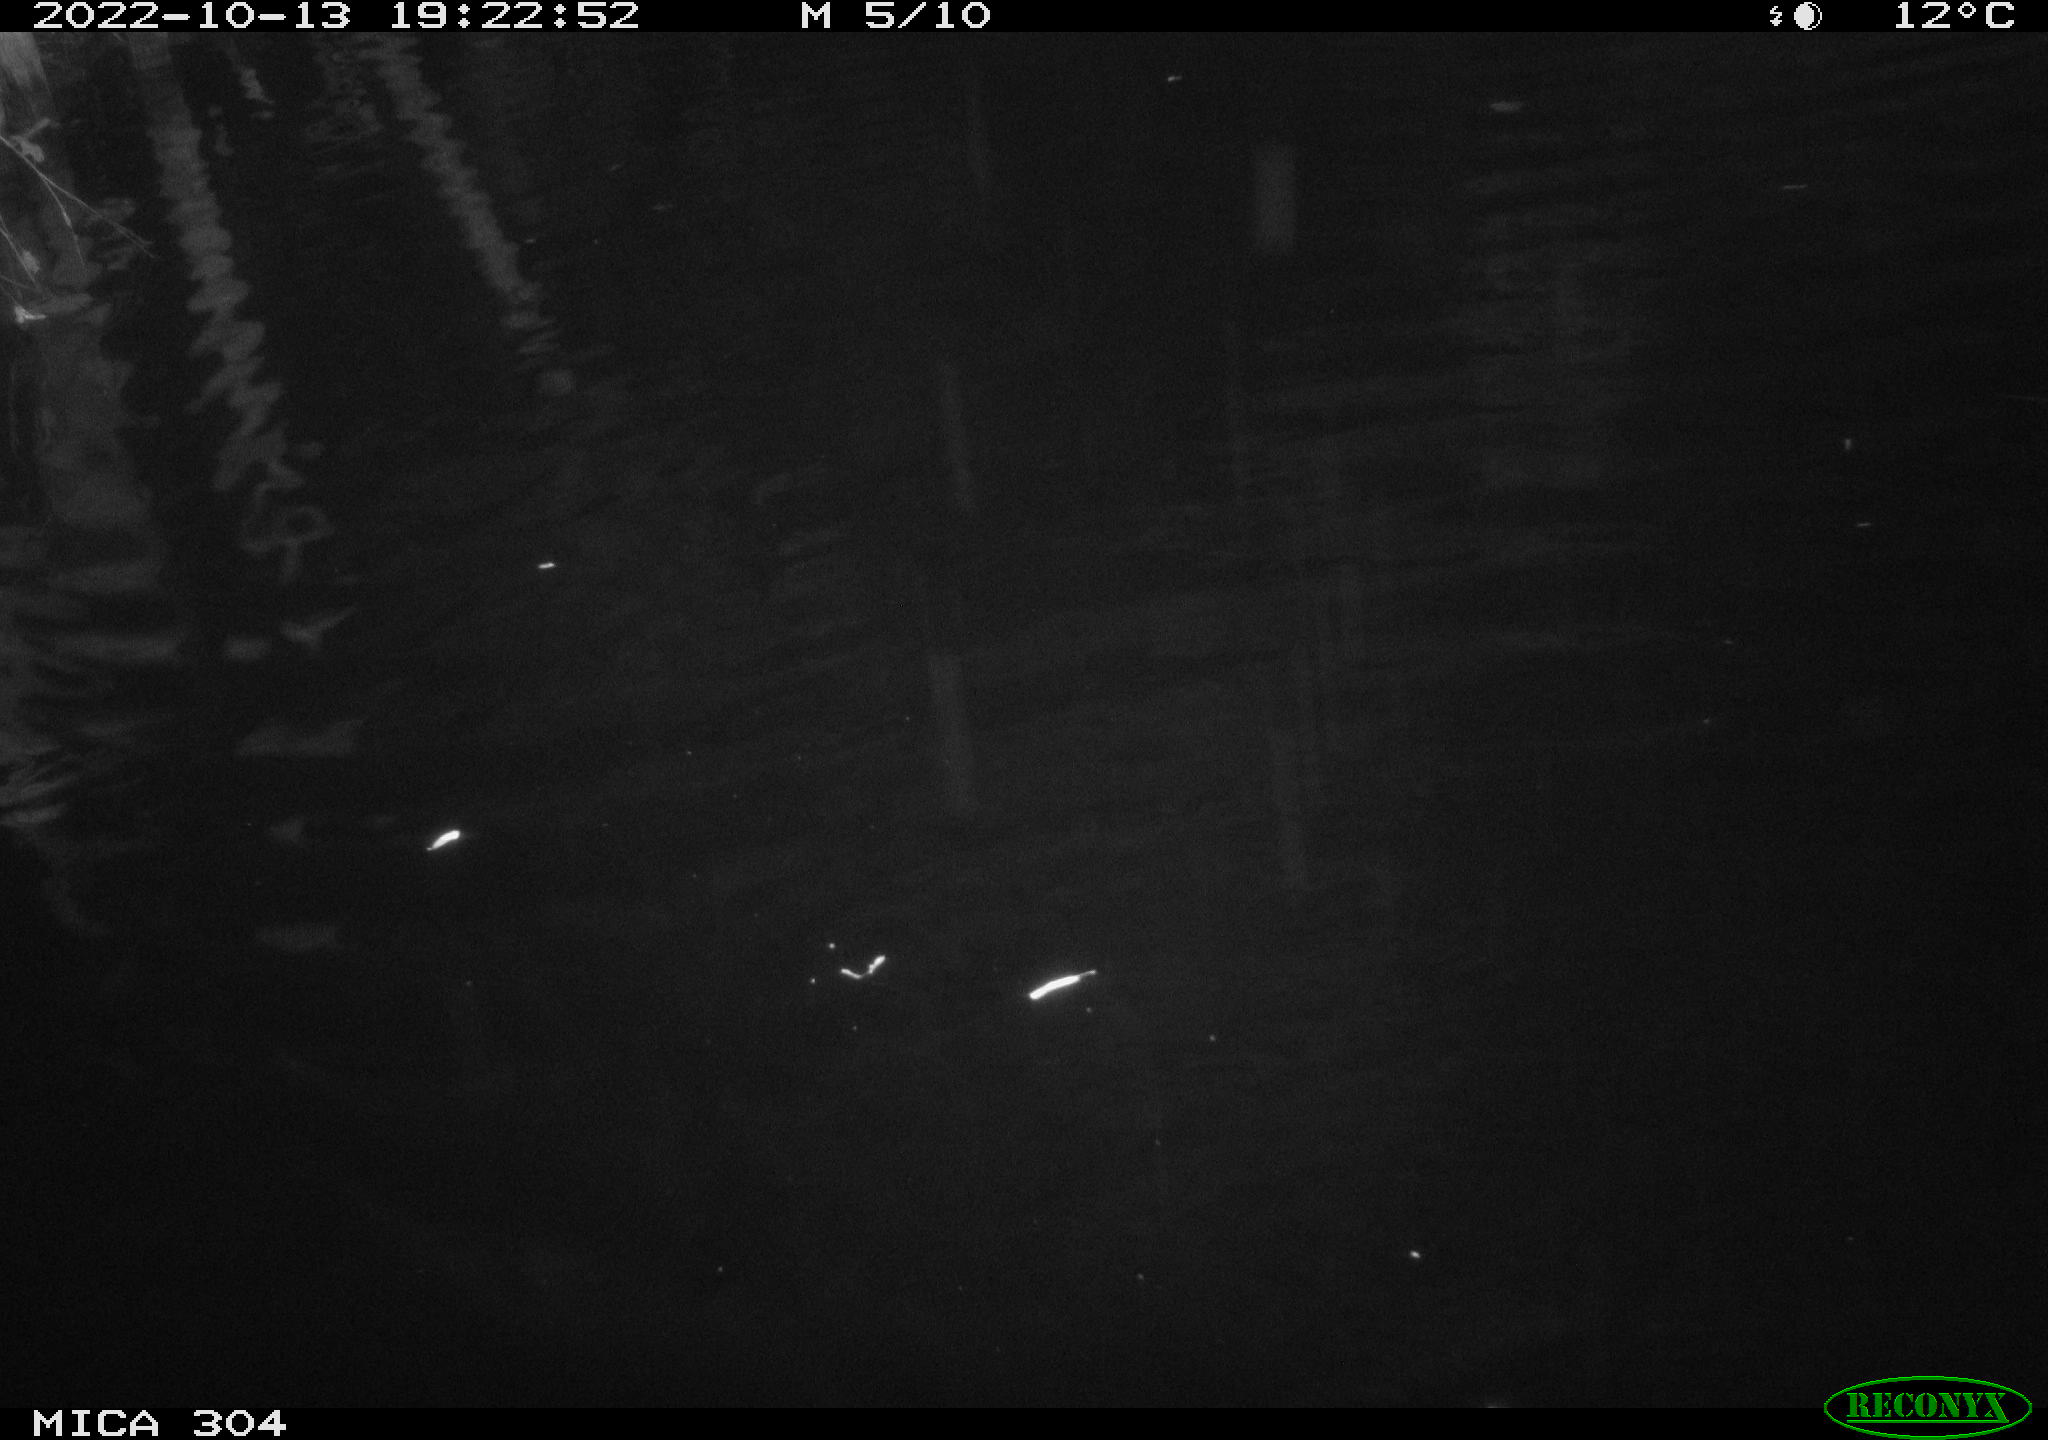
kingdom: Animalia
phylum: Chordata
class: Mammalia
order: Rodentia
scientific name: Rodentia
